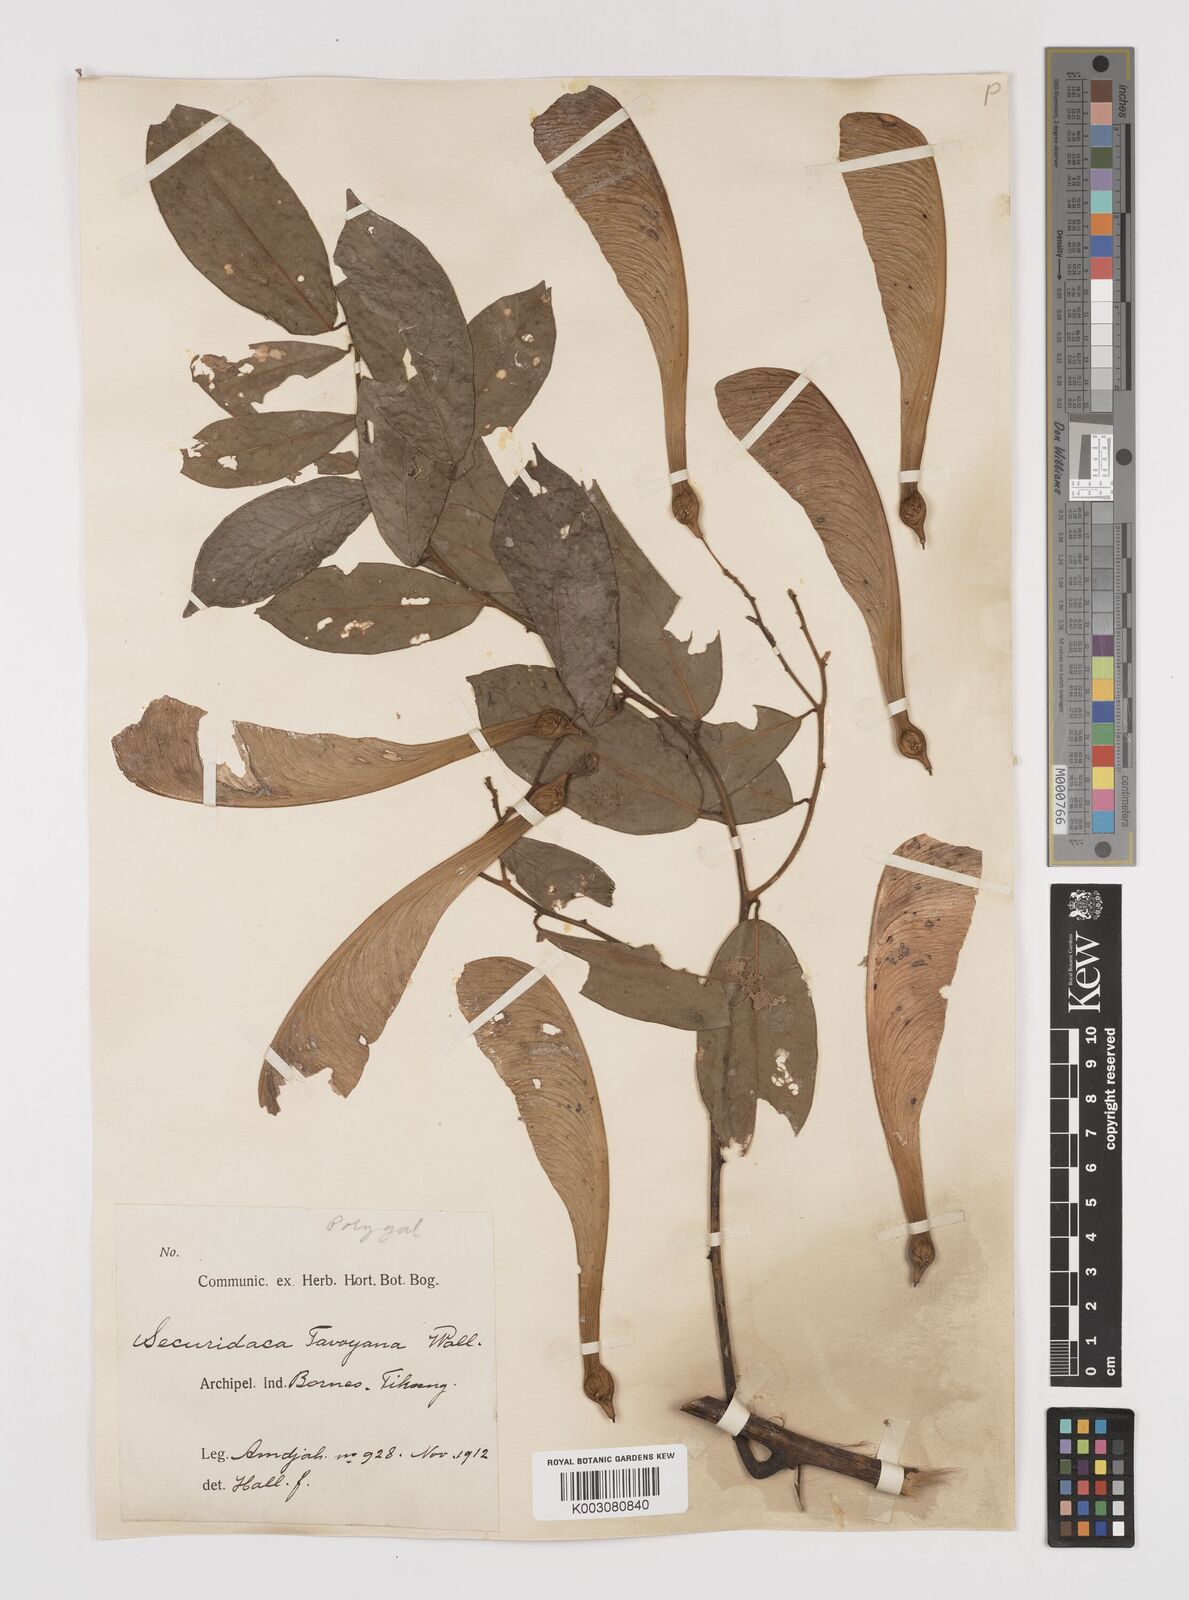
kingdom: Plantae
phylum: Tracheophyta
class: Magnoliopsida
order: Fabales
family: Polygalaceae
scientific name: Polygalaceae
